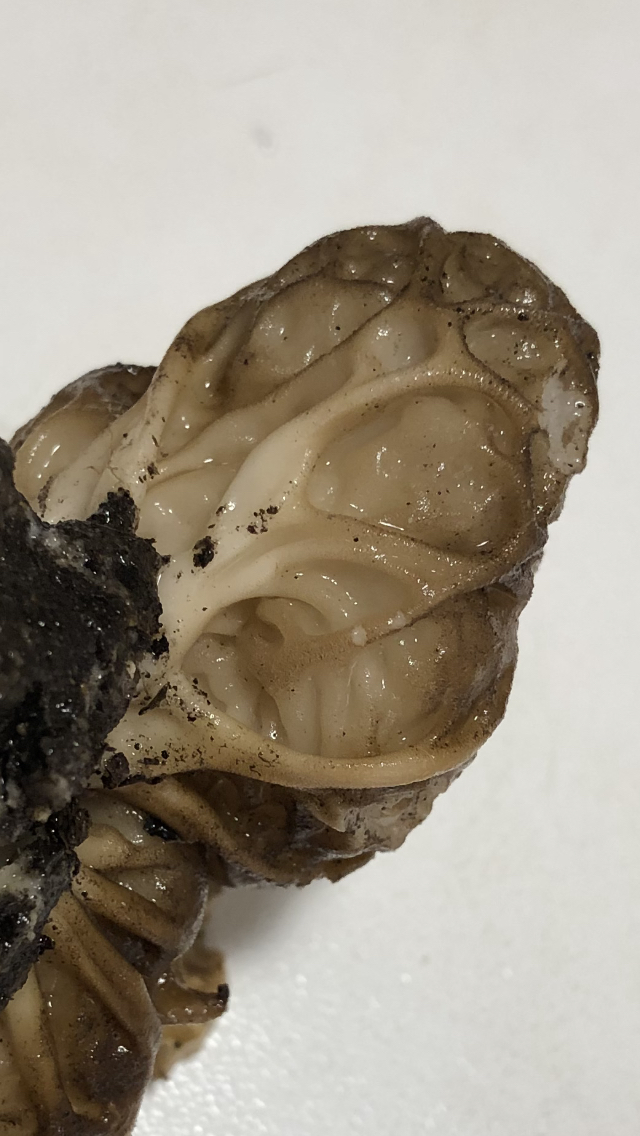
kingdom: Fungi
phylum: Ascomycota
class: Pezizomycetes
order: Pezizales
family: Helvellaceae
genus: Helvella
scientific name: Helvella
